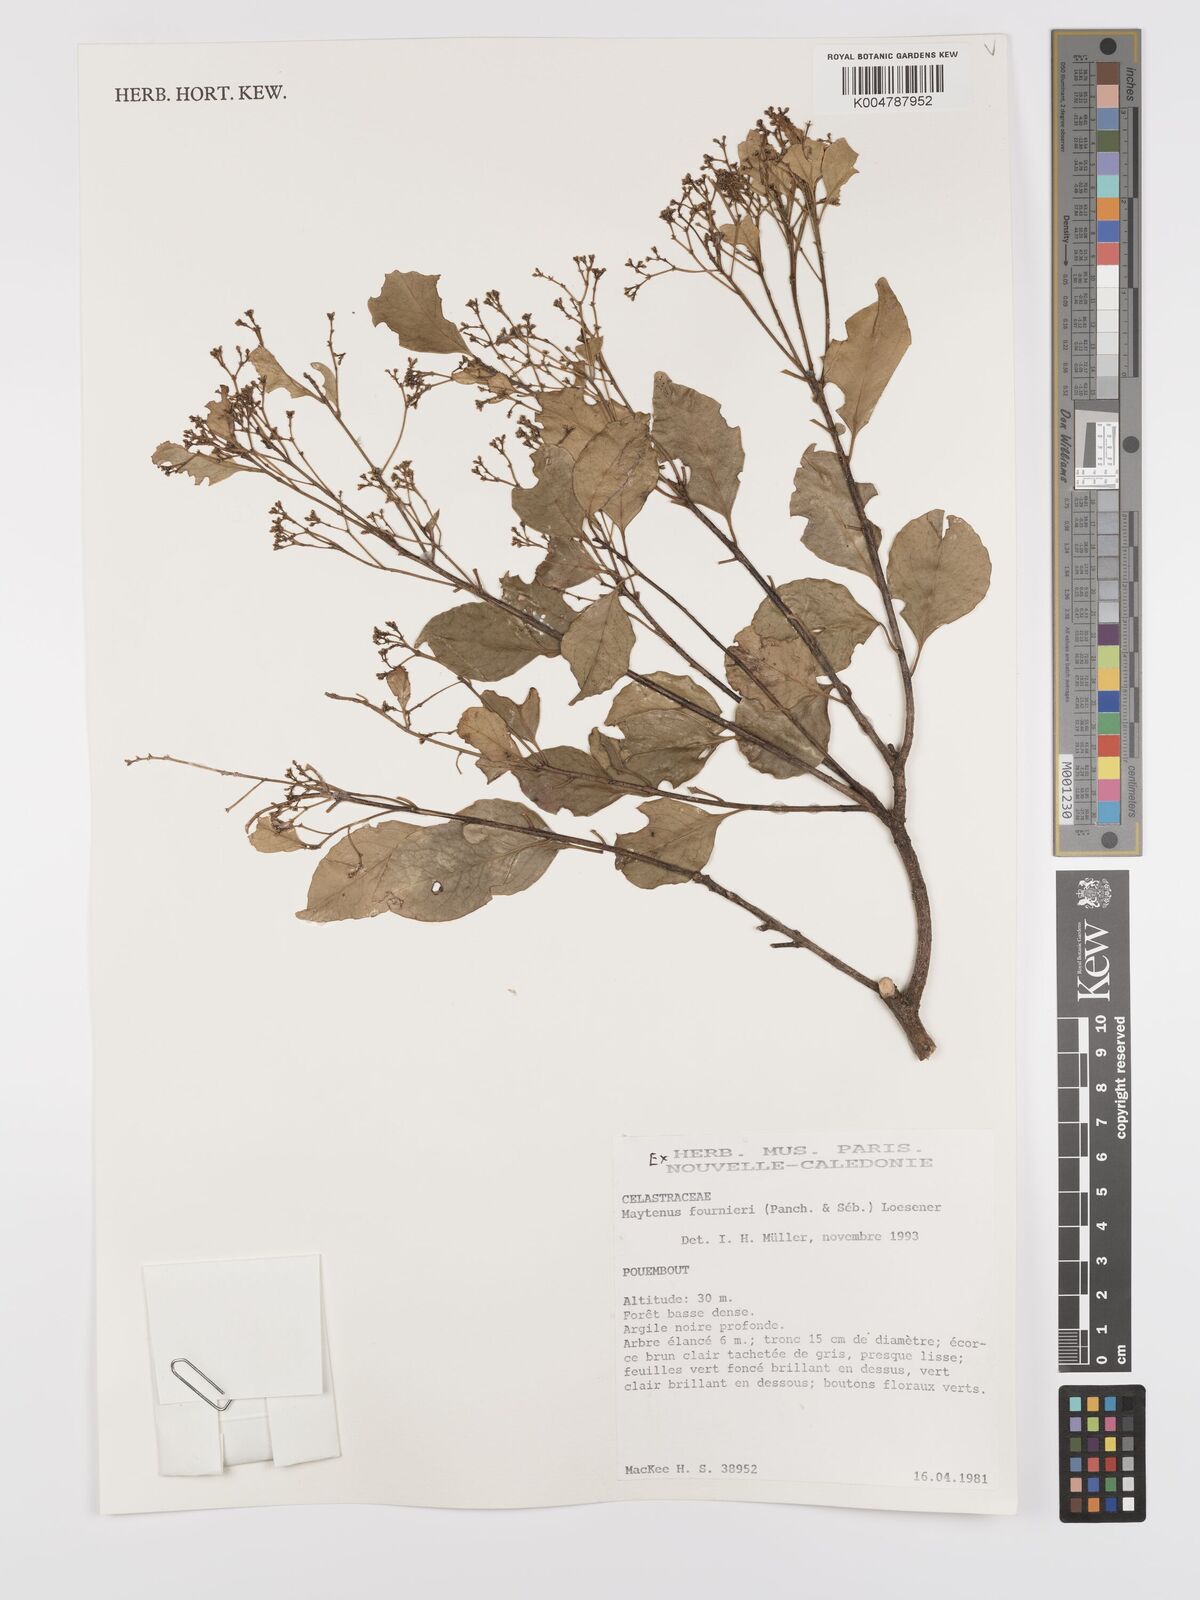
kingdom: Plantae
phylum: Tracheophyta
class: Magnoliopsida
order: Celastrales
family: Celastraceae
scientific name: Celastraceae
